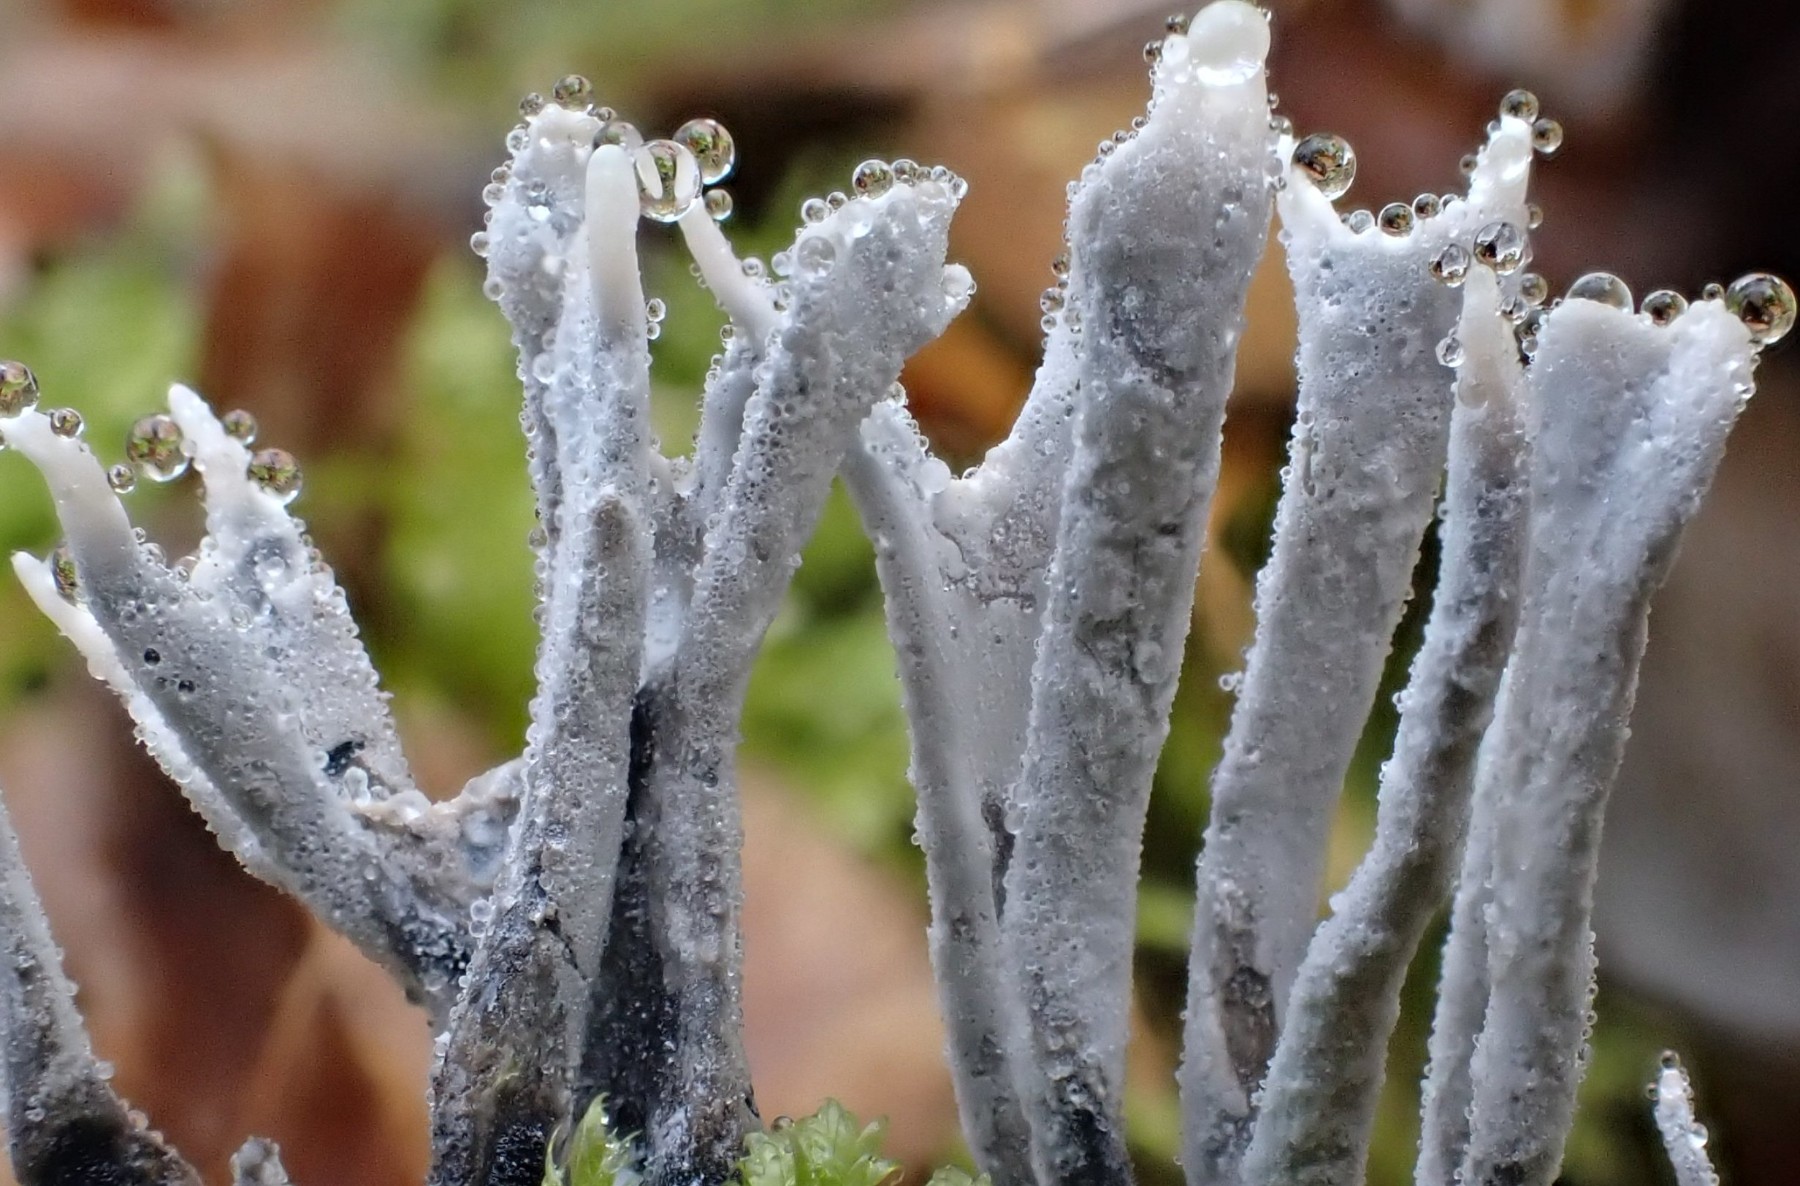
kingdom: Fungi
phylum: Ascomycota
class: Sordariomycetes
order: Xylariales
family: Xylariaceae
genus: Xylaria
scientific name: Xylaria hypoxylon
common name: grenet stødsvamp
